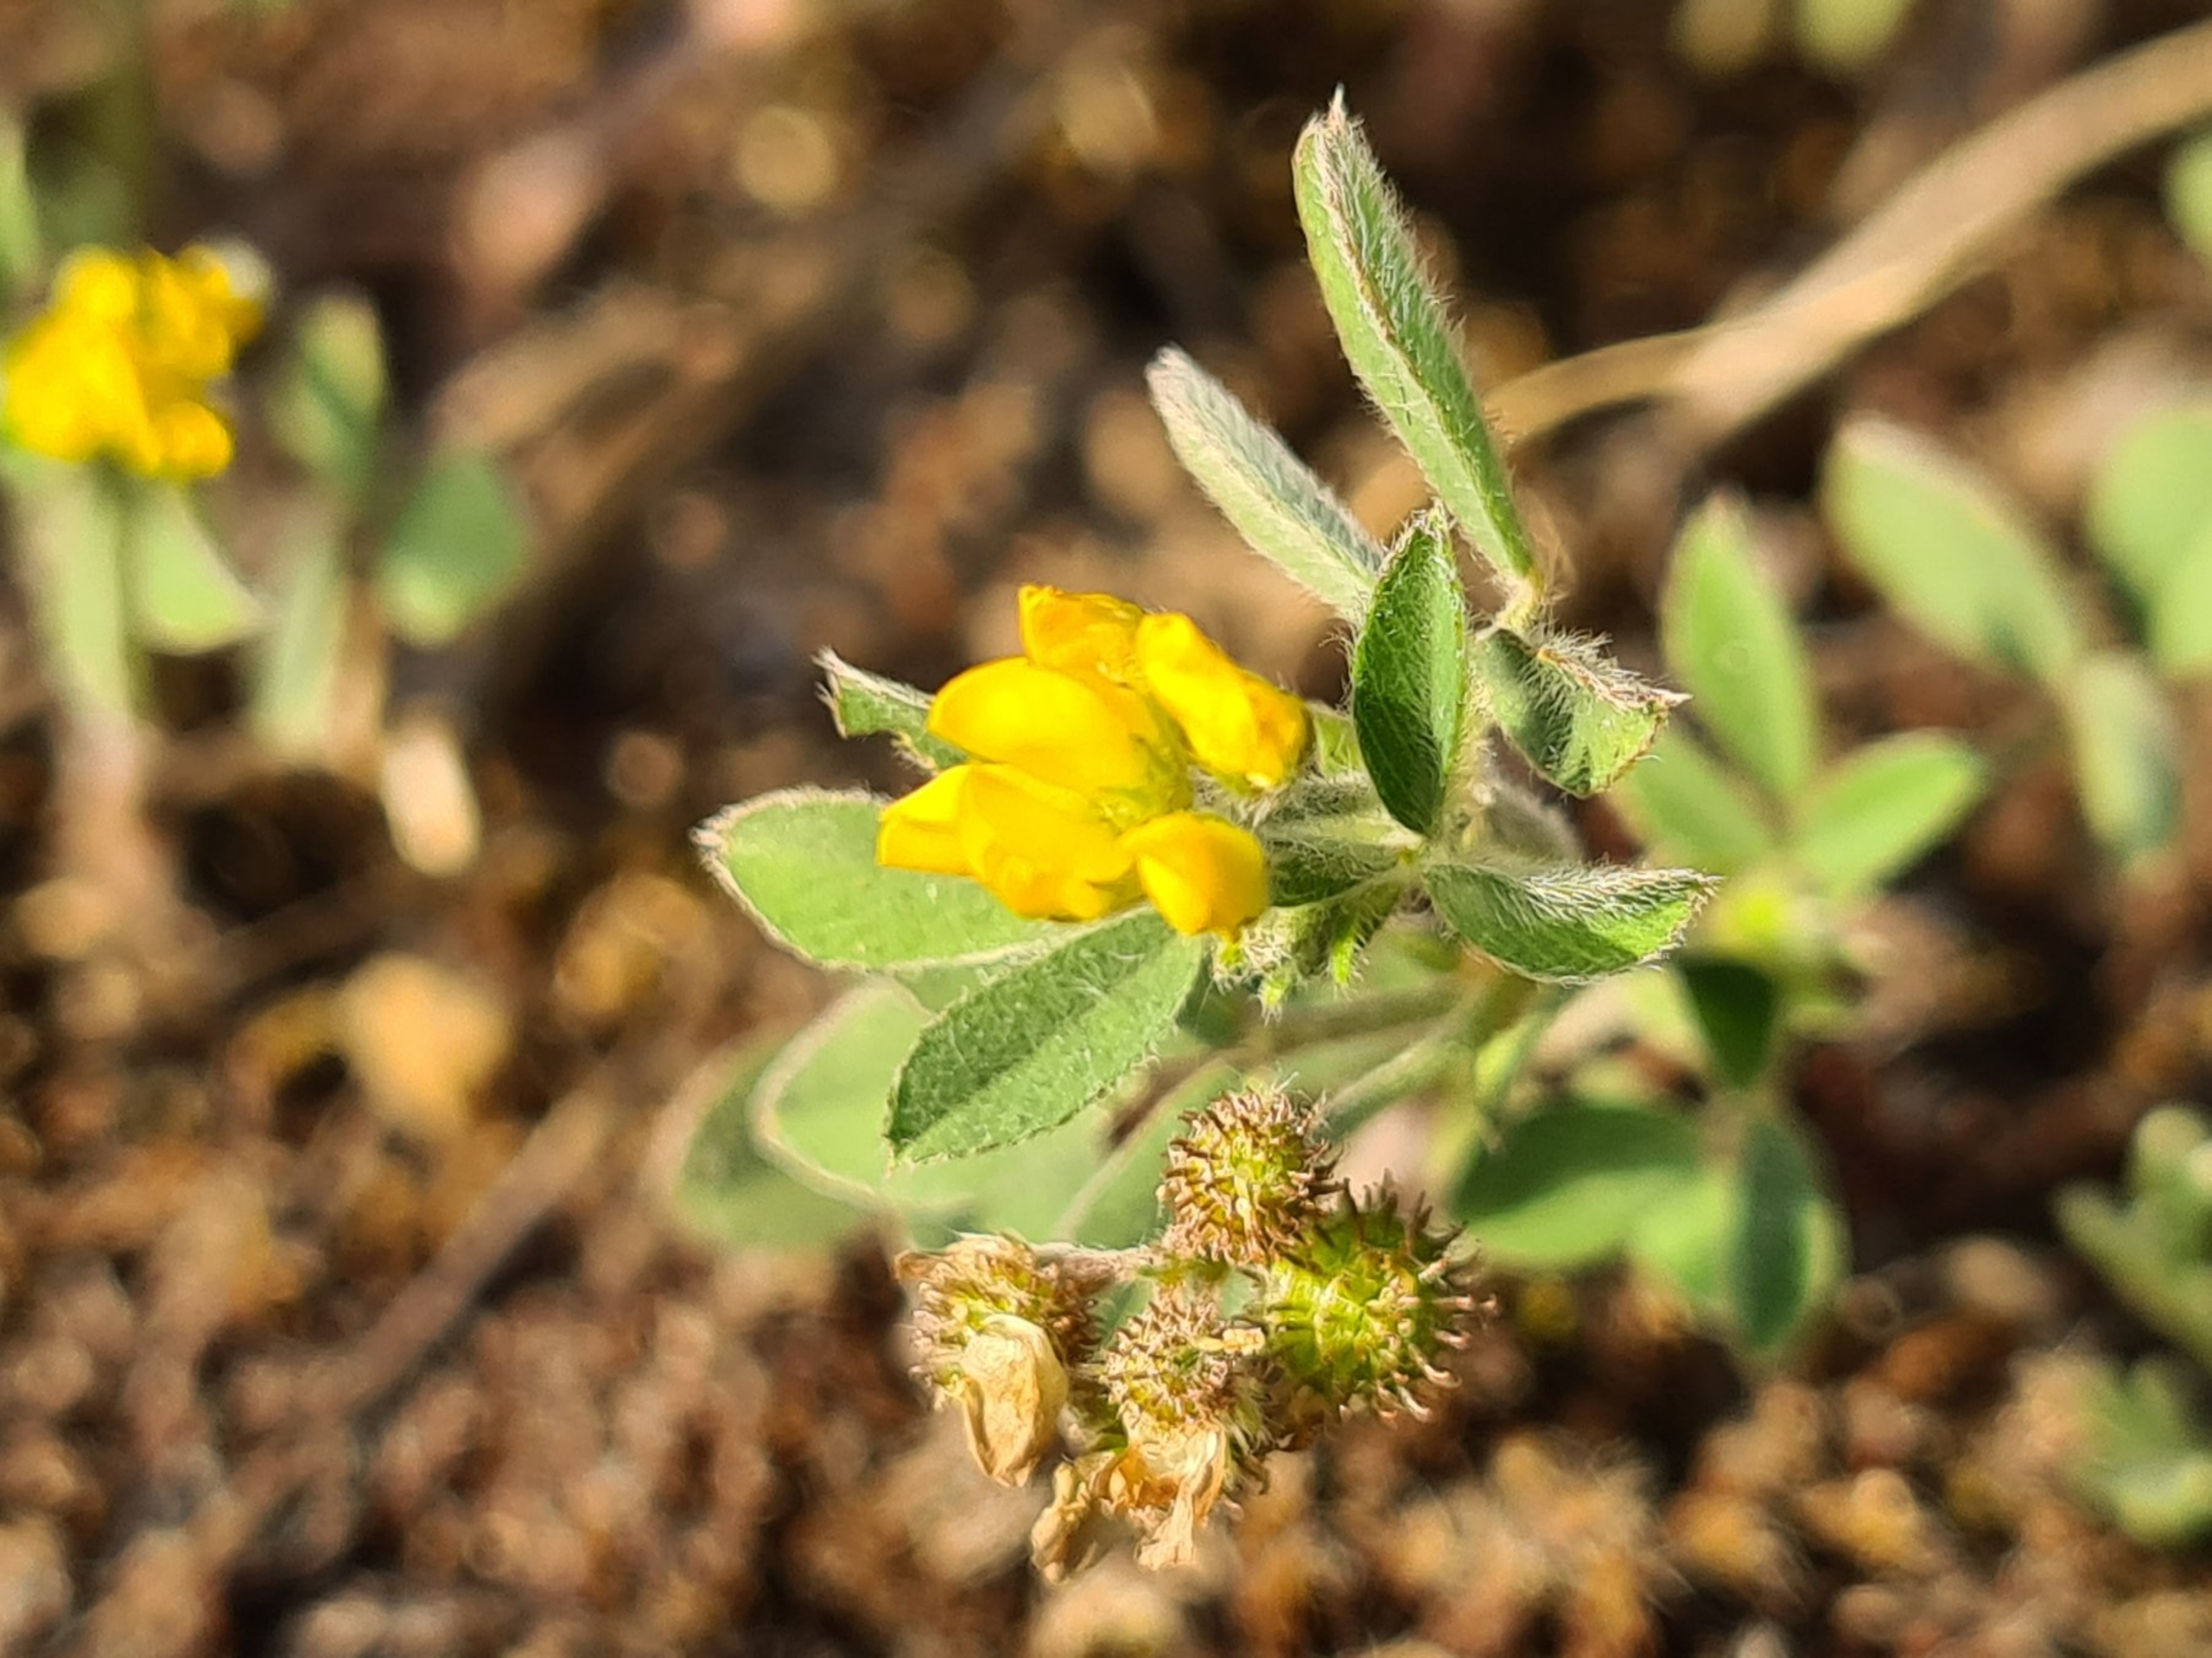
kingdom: Plantae
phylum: Tracheophyta
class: Magnoliopsida
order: Fabales
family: Fabaceae
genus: Medicago
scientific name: Medicago minima
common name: Liden sneglebælg
